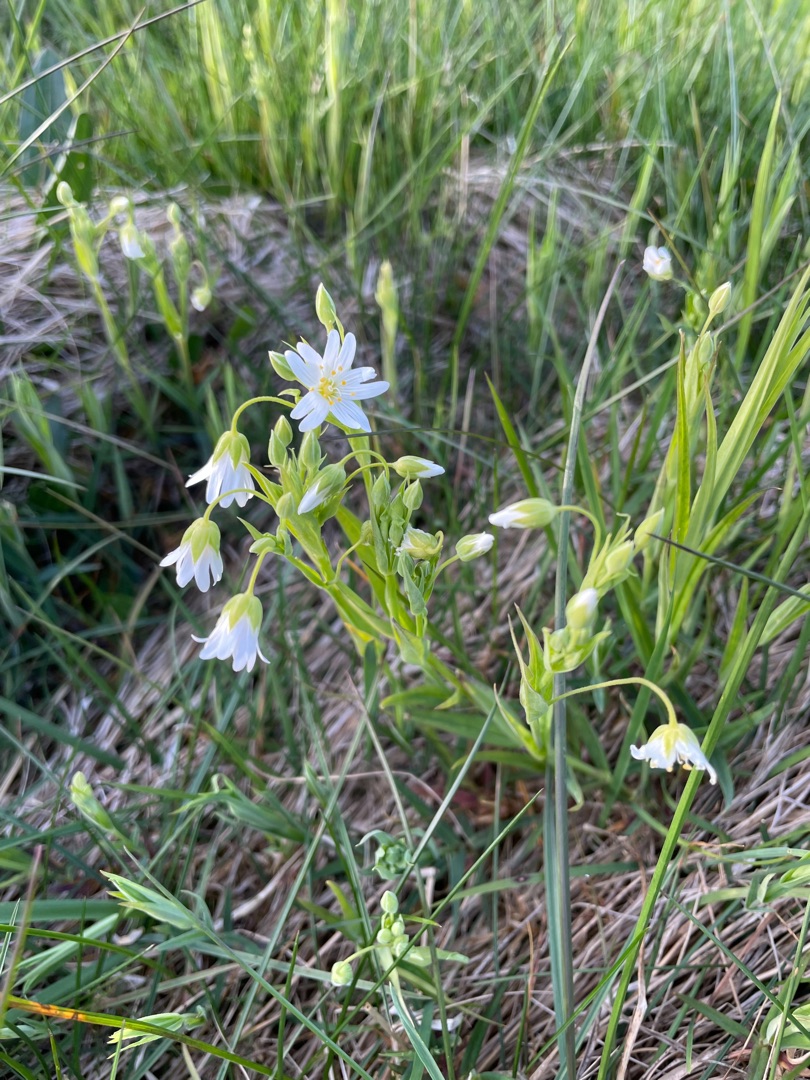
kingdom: Plantae
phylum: Tracheophyta
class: Magnoliopsida
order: Caryophyllales
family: Caryophyllaceae
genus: Rabelera
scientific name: Rabelera holostea
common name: Stor fladstjerne
